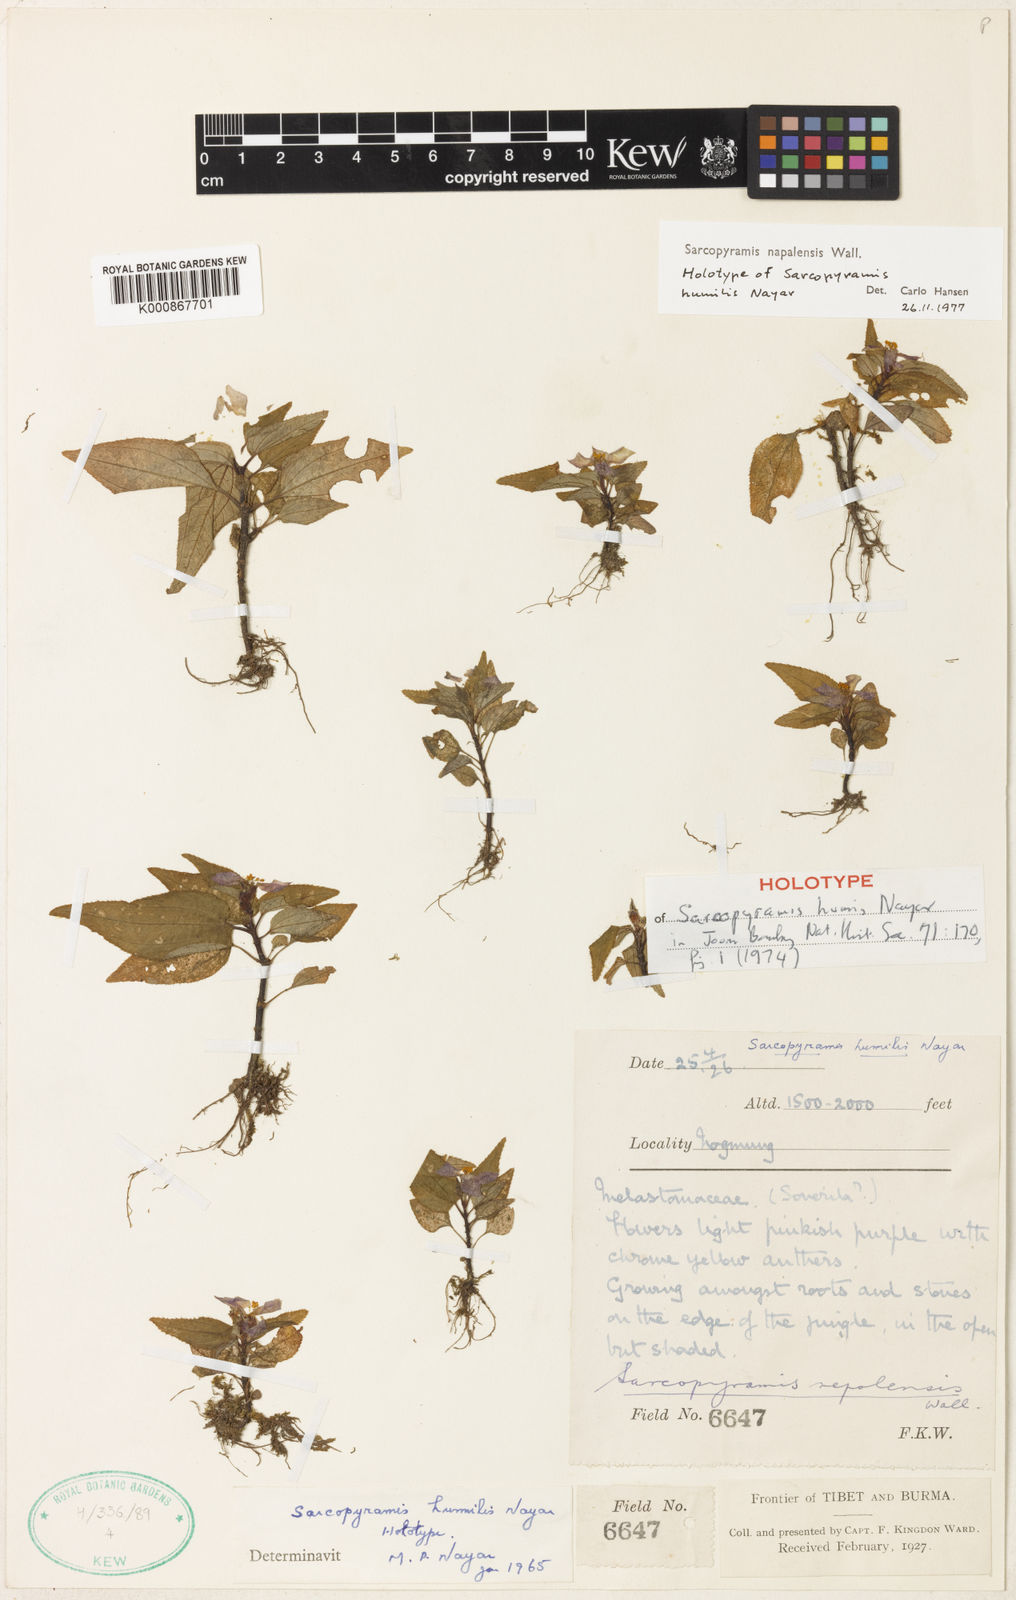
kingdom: Plantae
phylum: Tracheophyta
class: Magnoliopsida
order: Myrtales
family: Melastomataceae
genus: Sarcopyramis
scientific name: Sarcopyramis napalensis
